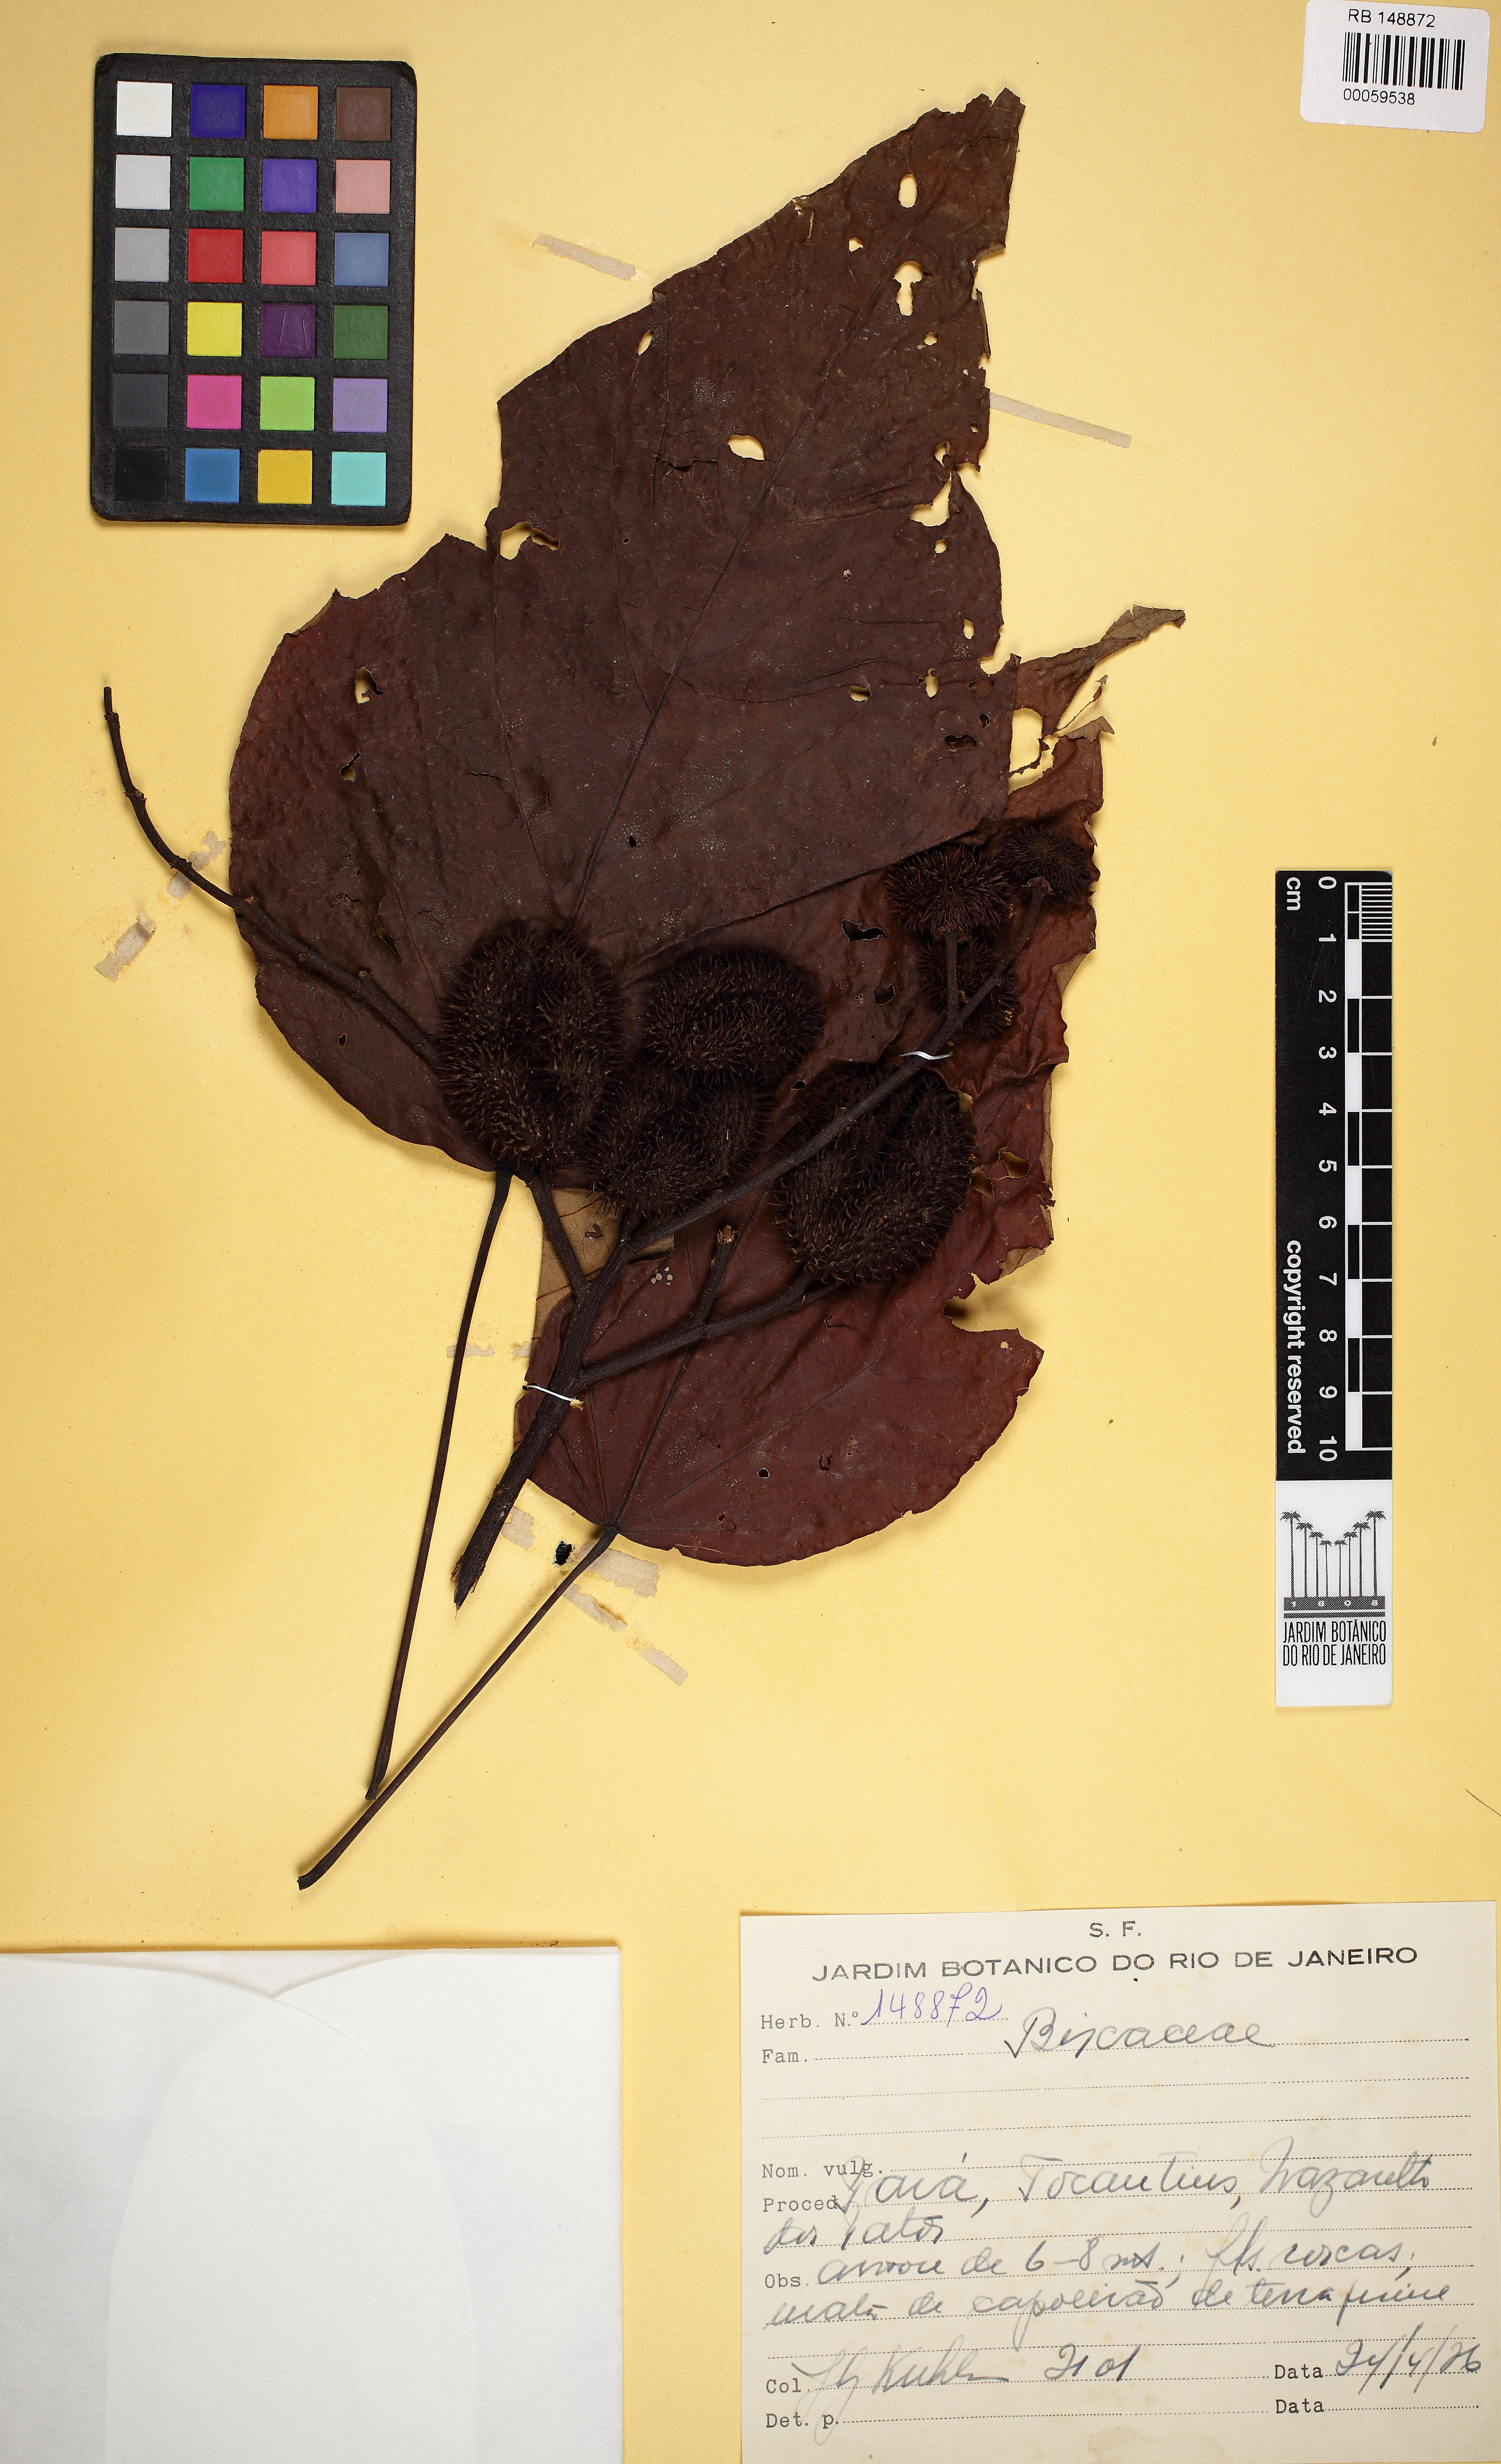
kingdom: Plantae
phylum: Tracheophyta
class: Magnoliopsida
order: Malvales
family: Bixaceae
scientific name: Bixaceae
